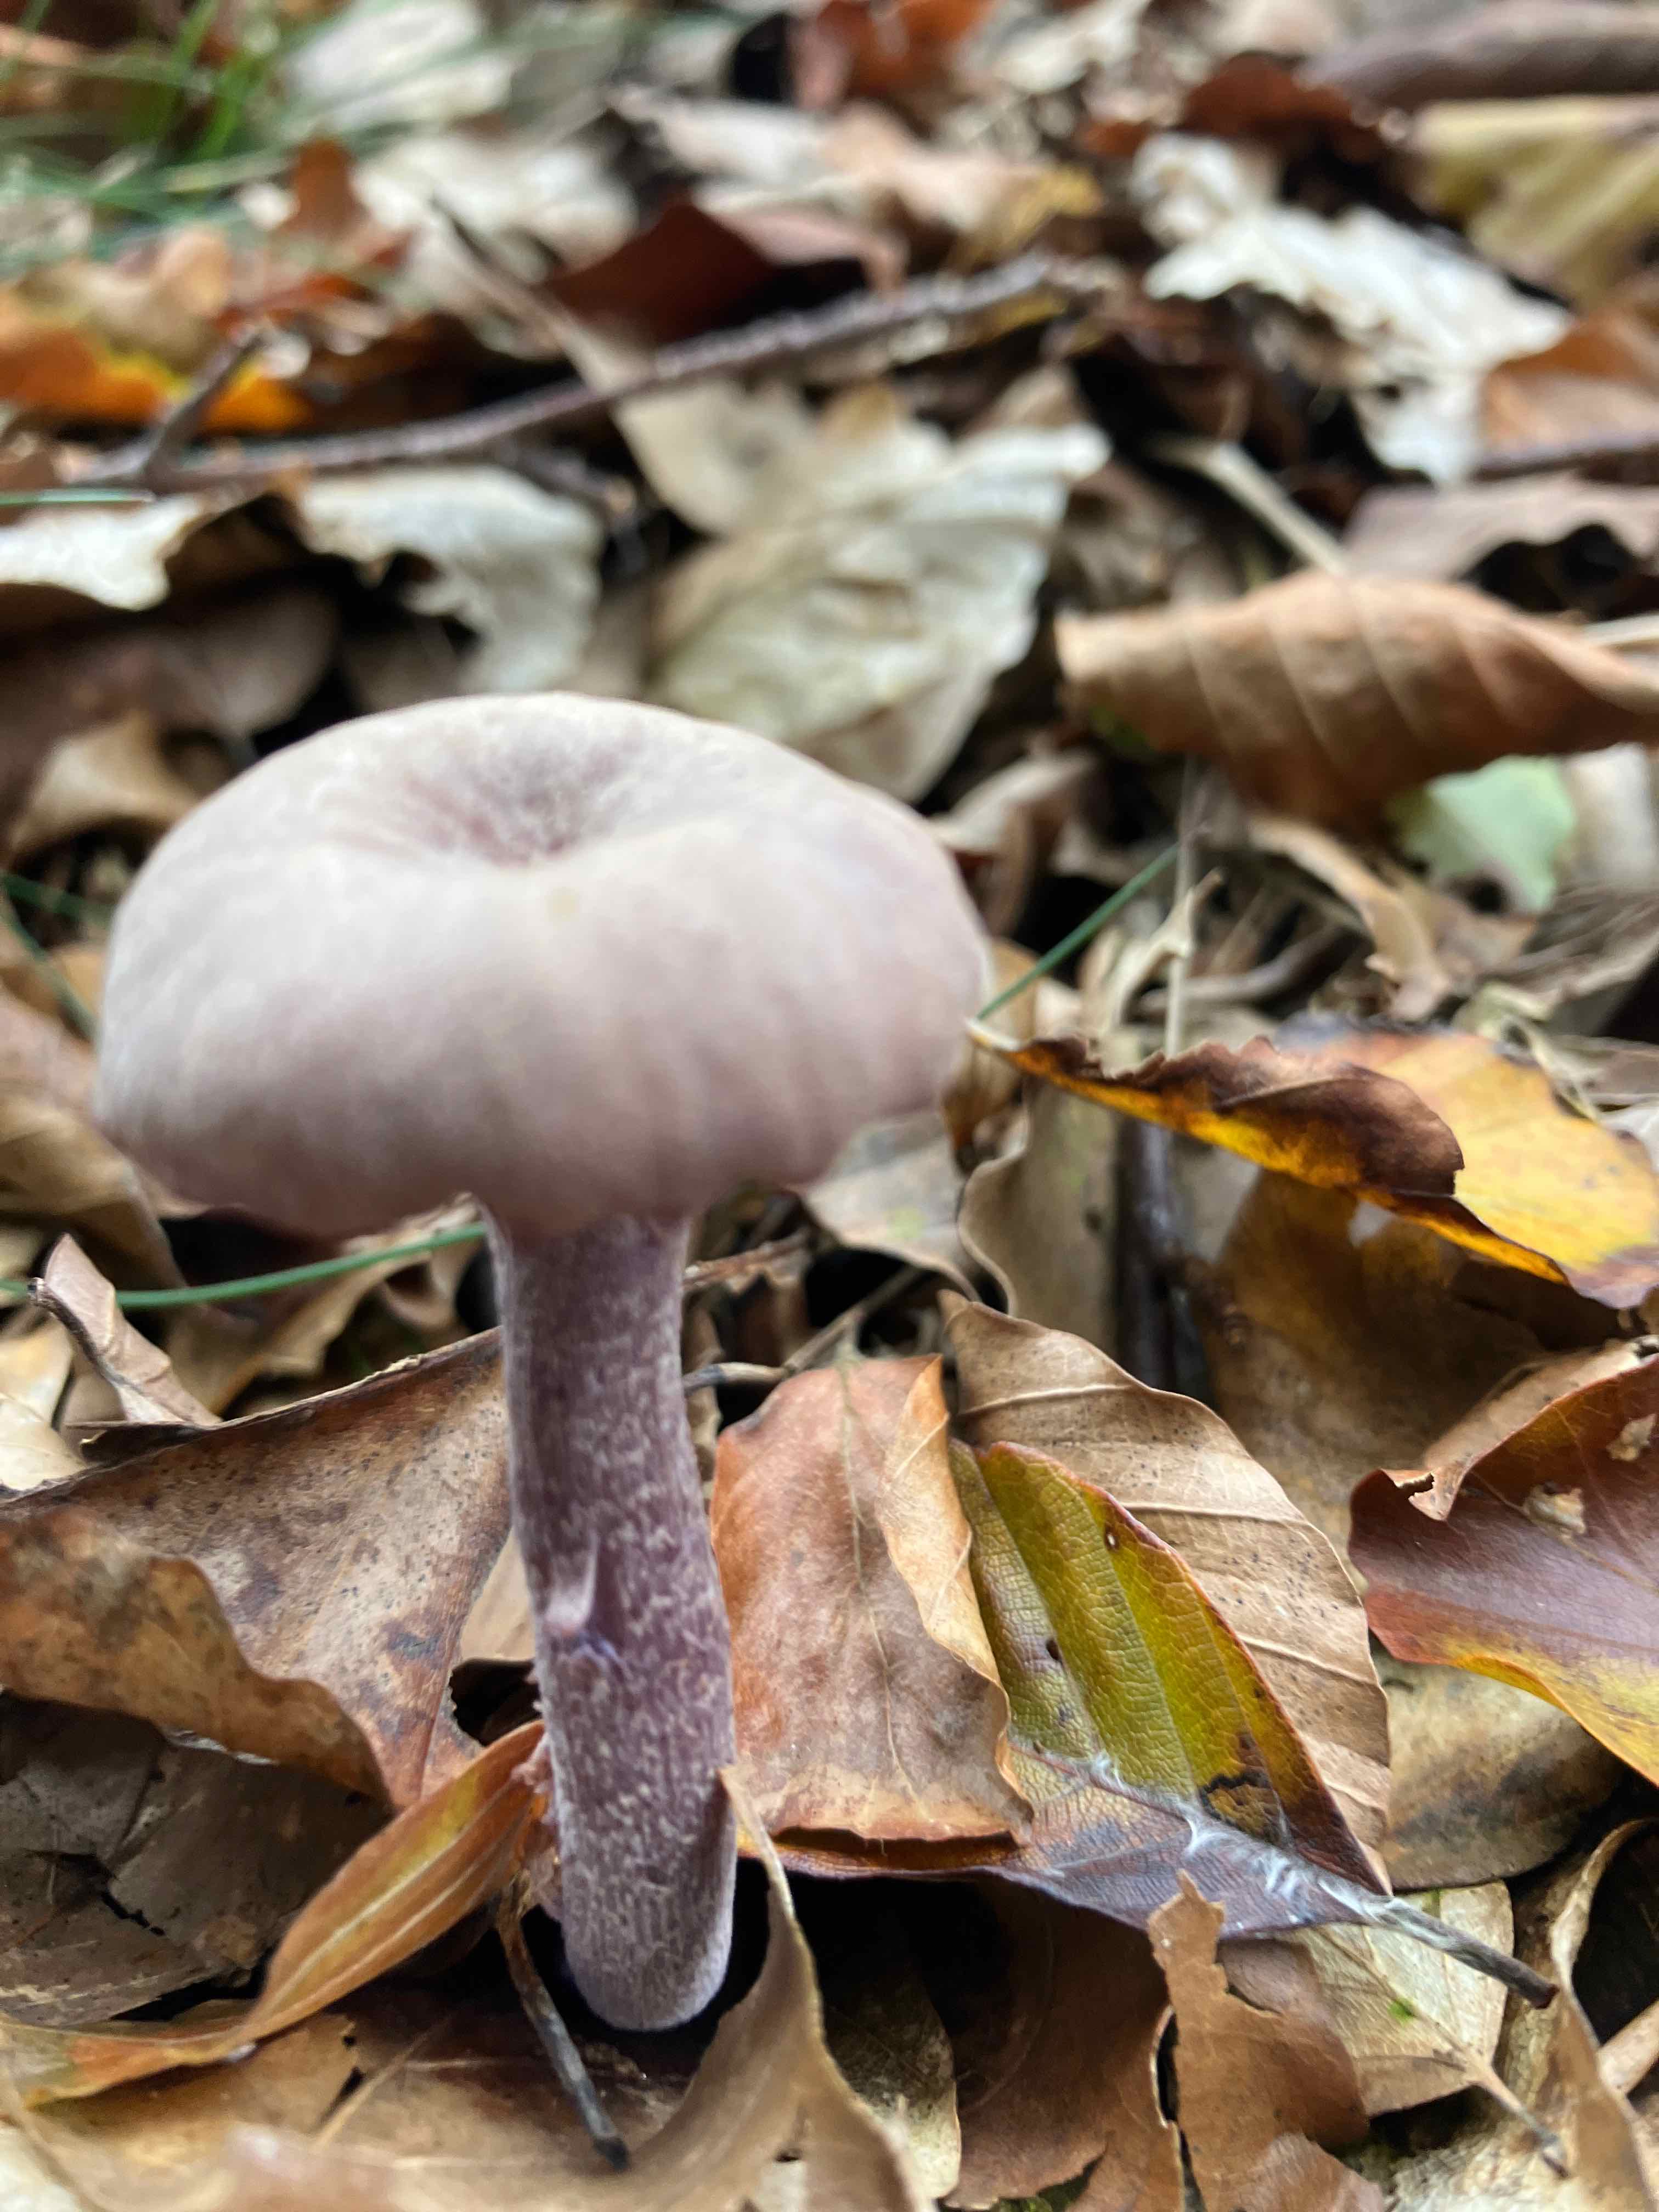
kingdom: Fungi
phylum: Basidiomycota
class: Agaricomycetes
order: Agaricales
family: Hydnangiaceae
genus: Laccaria
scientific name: Laccaria amethystina
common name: violet ametysthat
